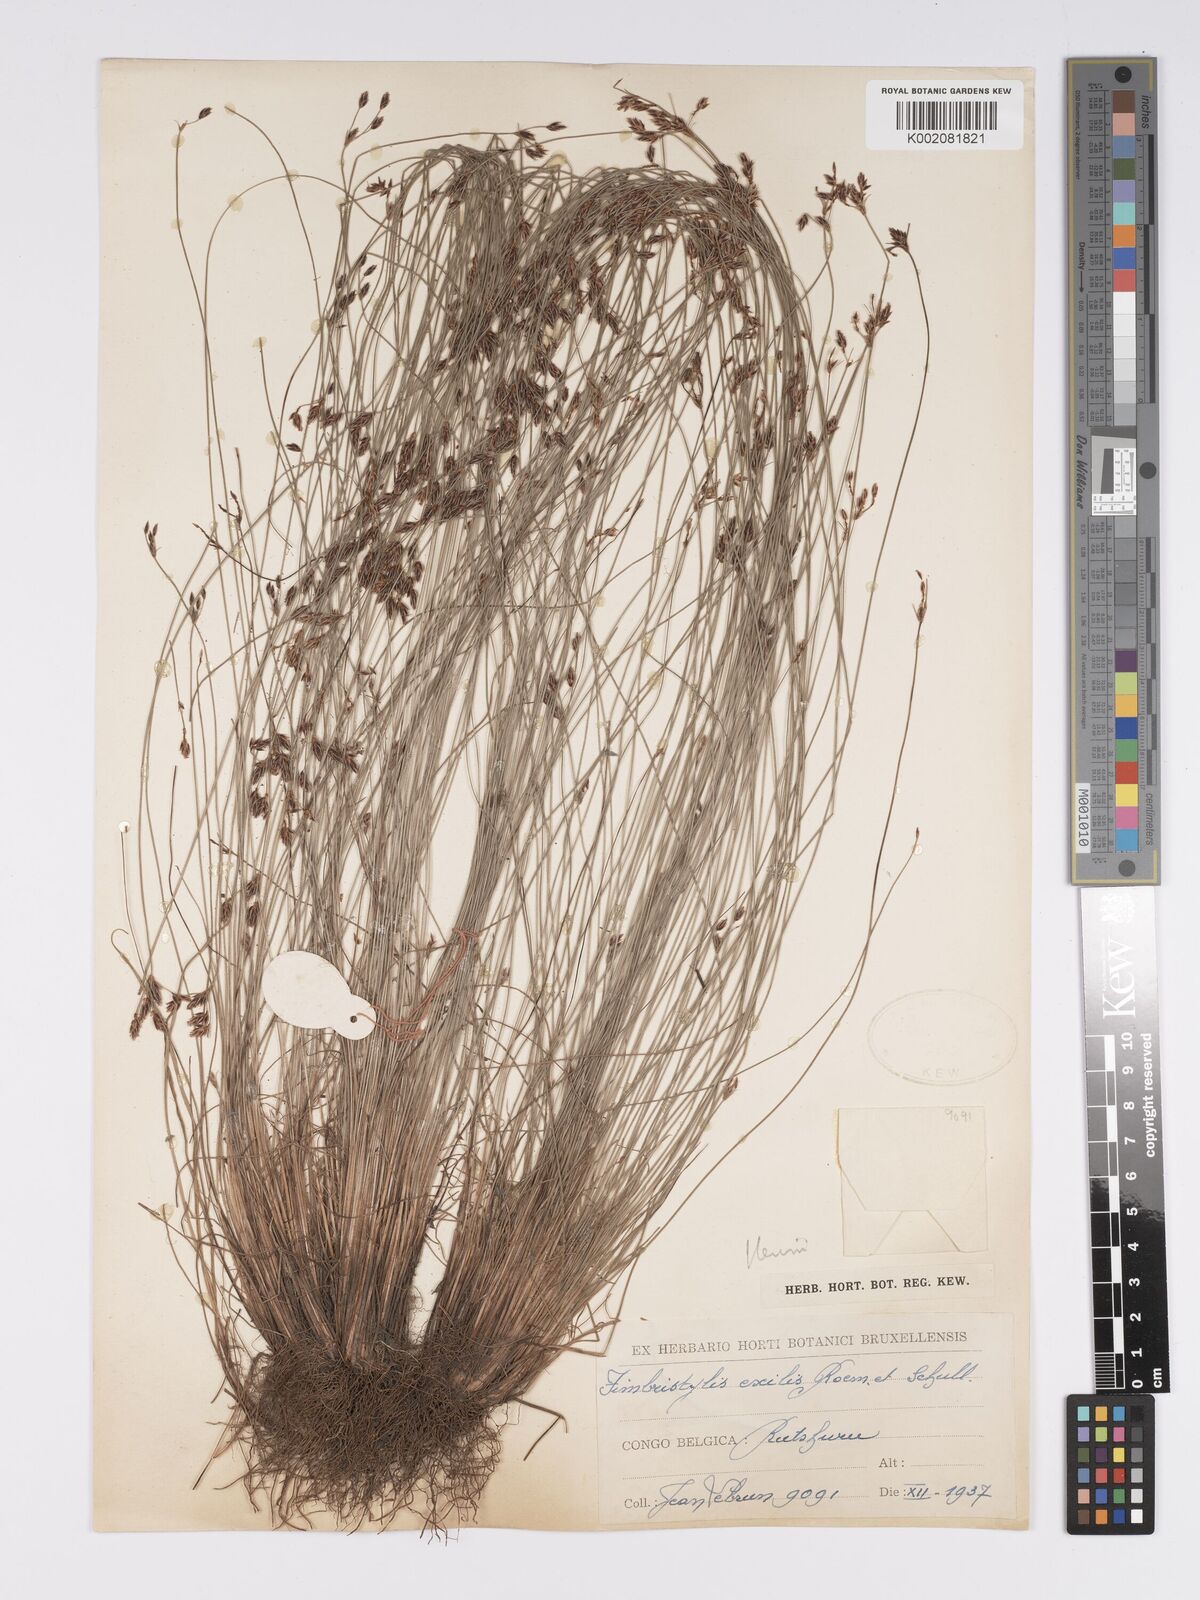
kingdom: Plantae
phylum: Tracheophyta
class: Liliopsida
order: Poales
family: Cyperaceae
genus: Bulbostylis
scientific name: Bulbostylis hispidula
